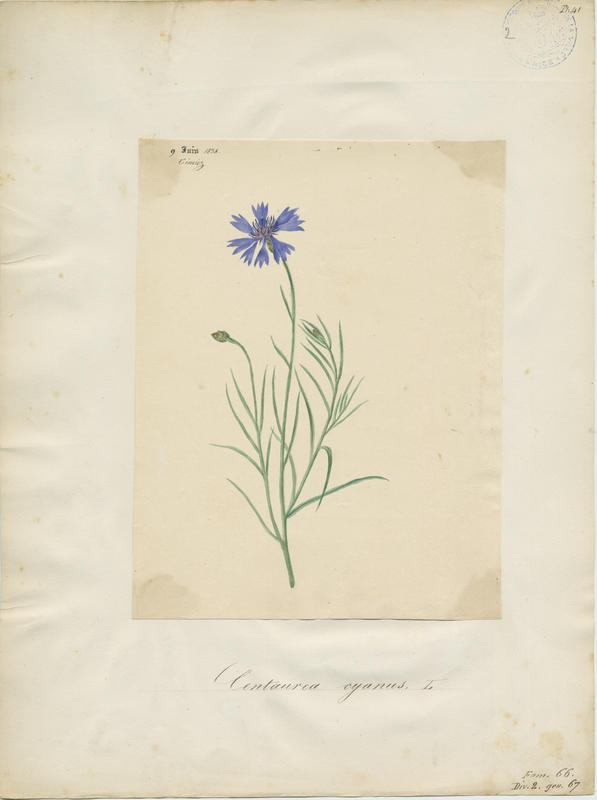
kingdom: Plantae
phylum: Tracheophyta
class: Magnoliopsida
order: Asterales
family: Asteraceae
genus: Centaurea
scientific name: Centaurea cyanus
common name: Cornflower
